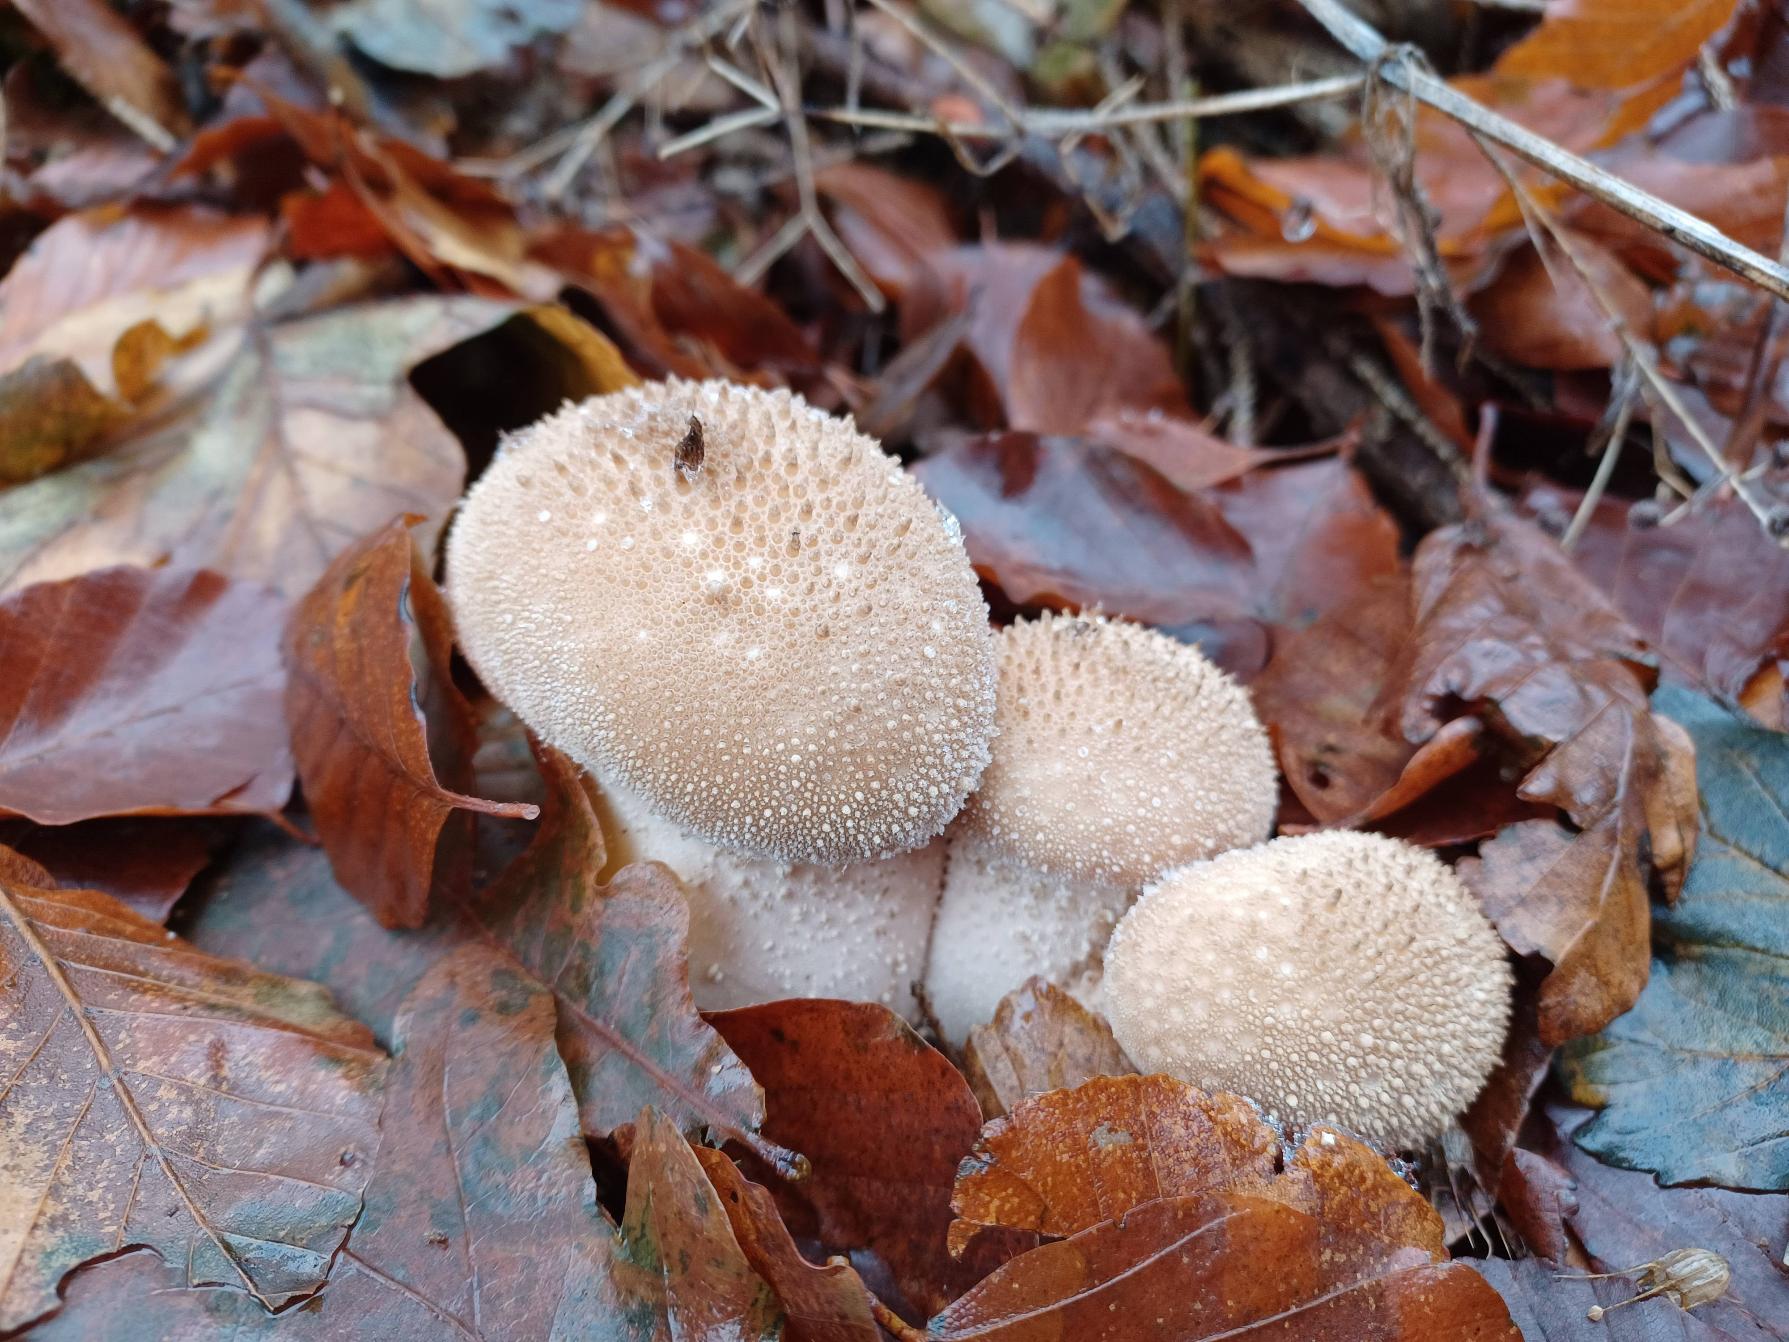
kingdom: Fungi
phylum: Basidiomycota
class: Agaricomycetes
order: Agaricales
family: Lycoperdaceae
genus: Lycoperdon
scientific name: Lycoperdon perlatum
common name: Krystal-støvbold
